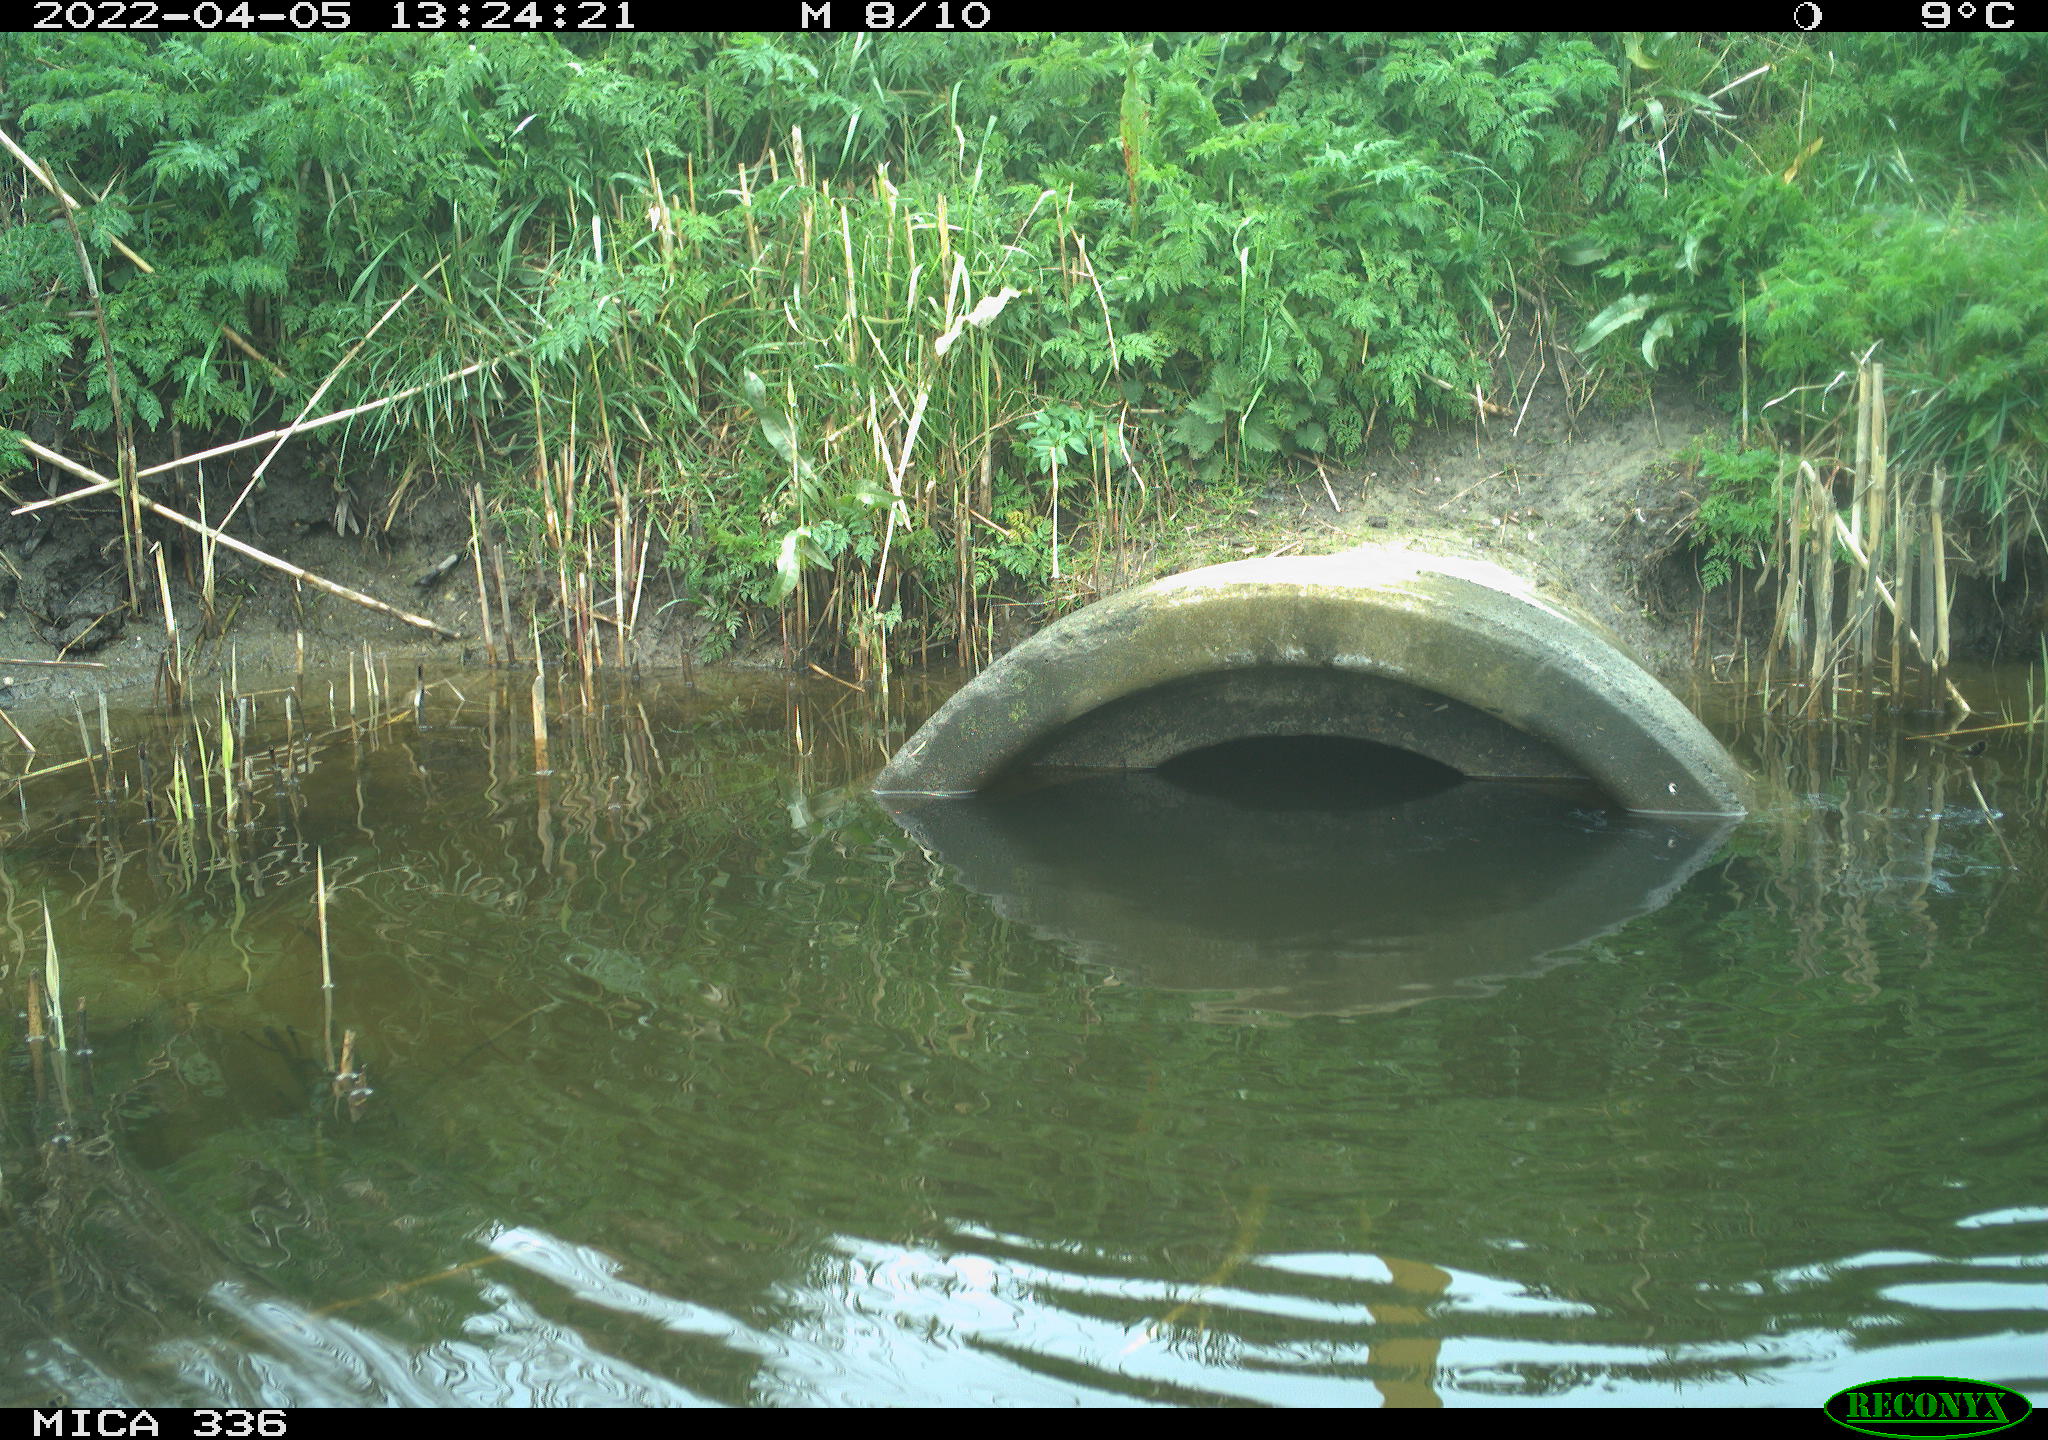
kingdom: Animalia
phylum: Chordata
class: Aves
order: Pelecaniformes
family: Ardeidae
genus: Ardea
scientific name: Ardea cinerea
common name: Grey heron
